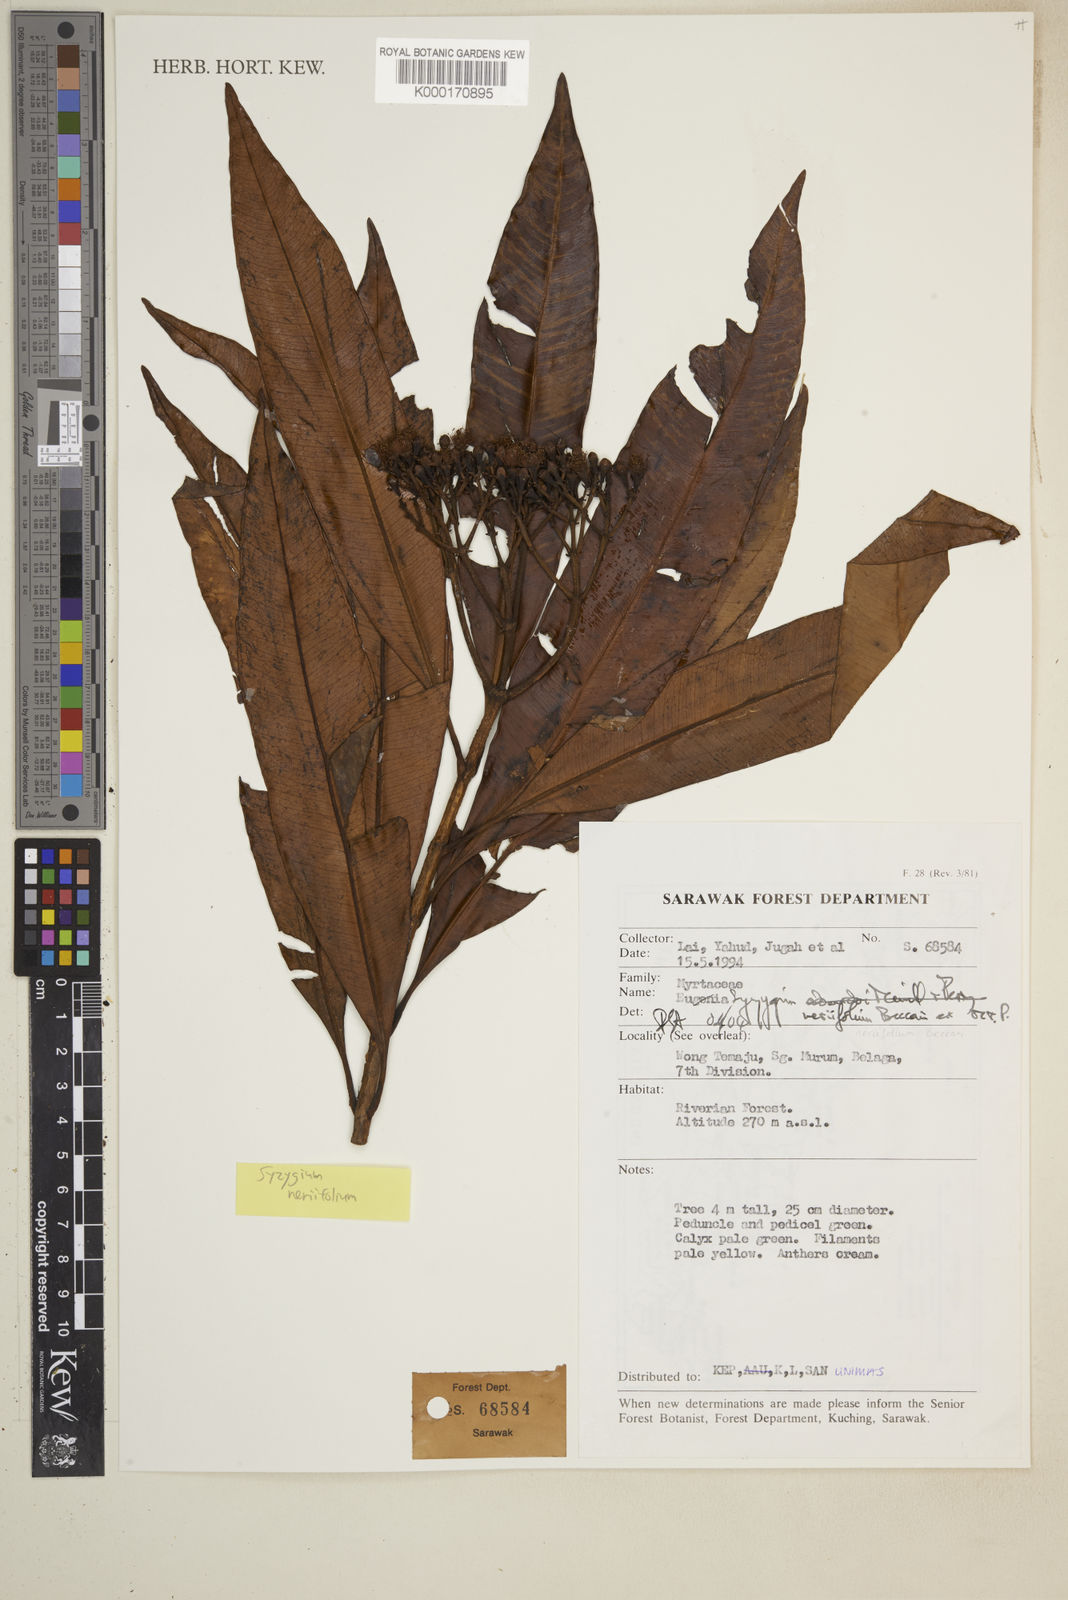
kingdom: Plantae
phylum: Tracheophyta
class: Magnoliopsida
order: Myrtales
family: Myrtaceae
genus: Syzygium
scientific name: Syzygium
